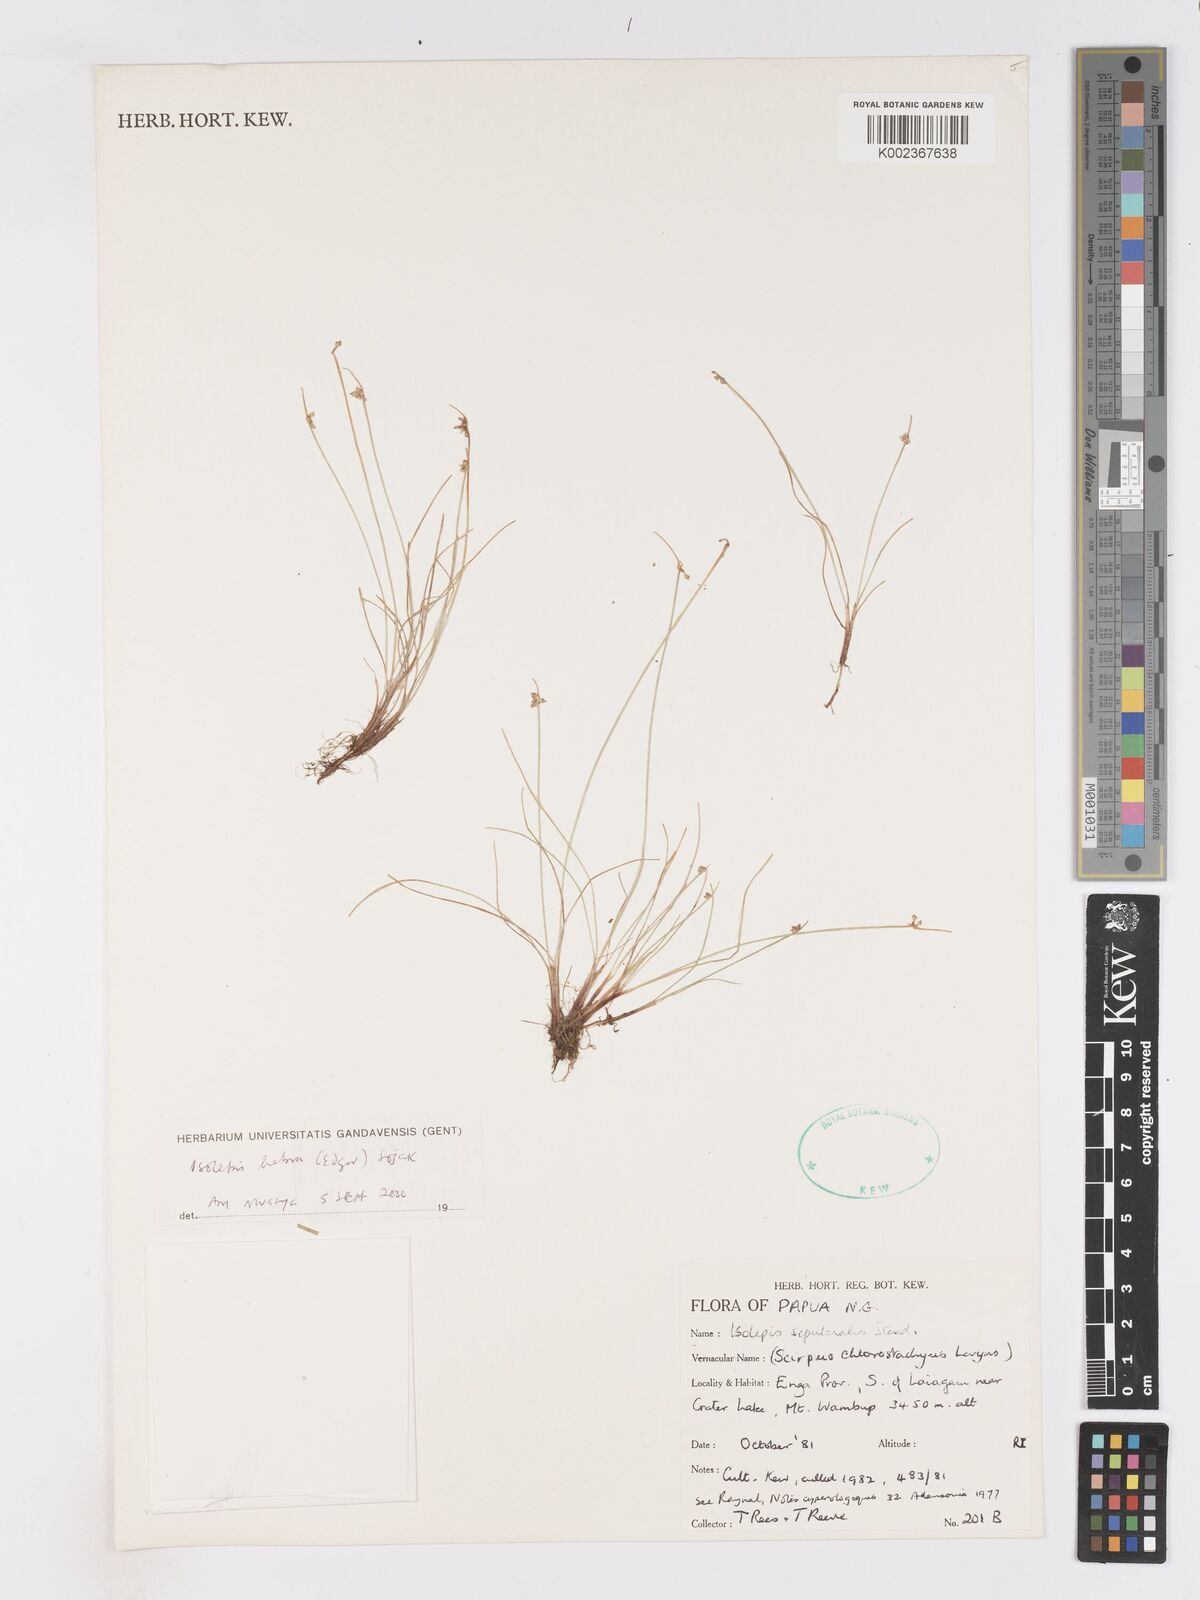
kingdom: Plantae
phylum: Tracheophyta
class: Liliopsida
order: Poales
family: Cyperaceae
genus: Isolepis
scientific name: Isolepis habra
